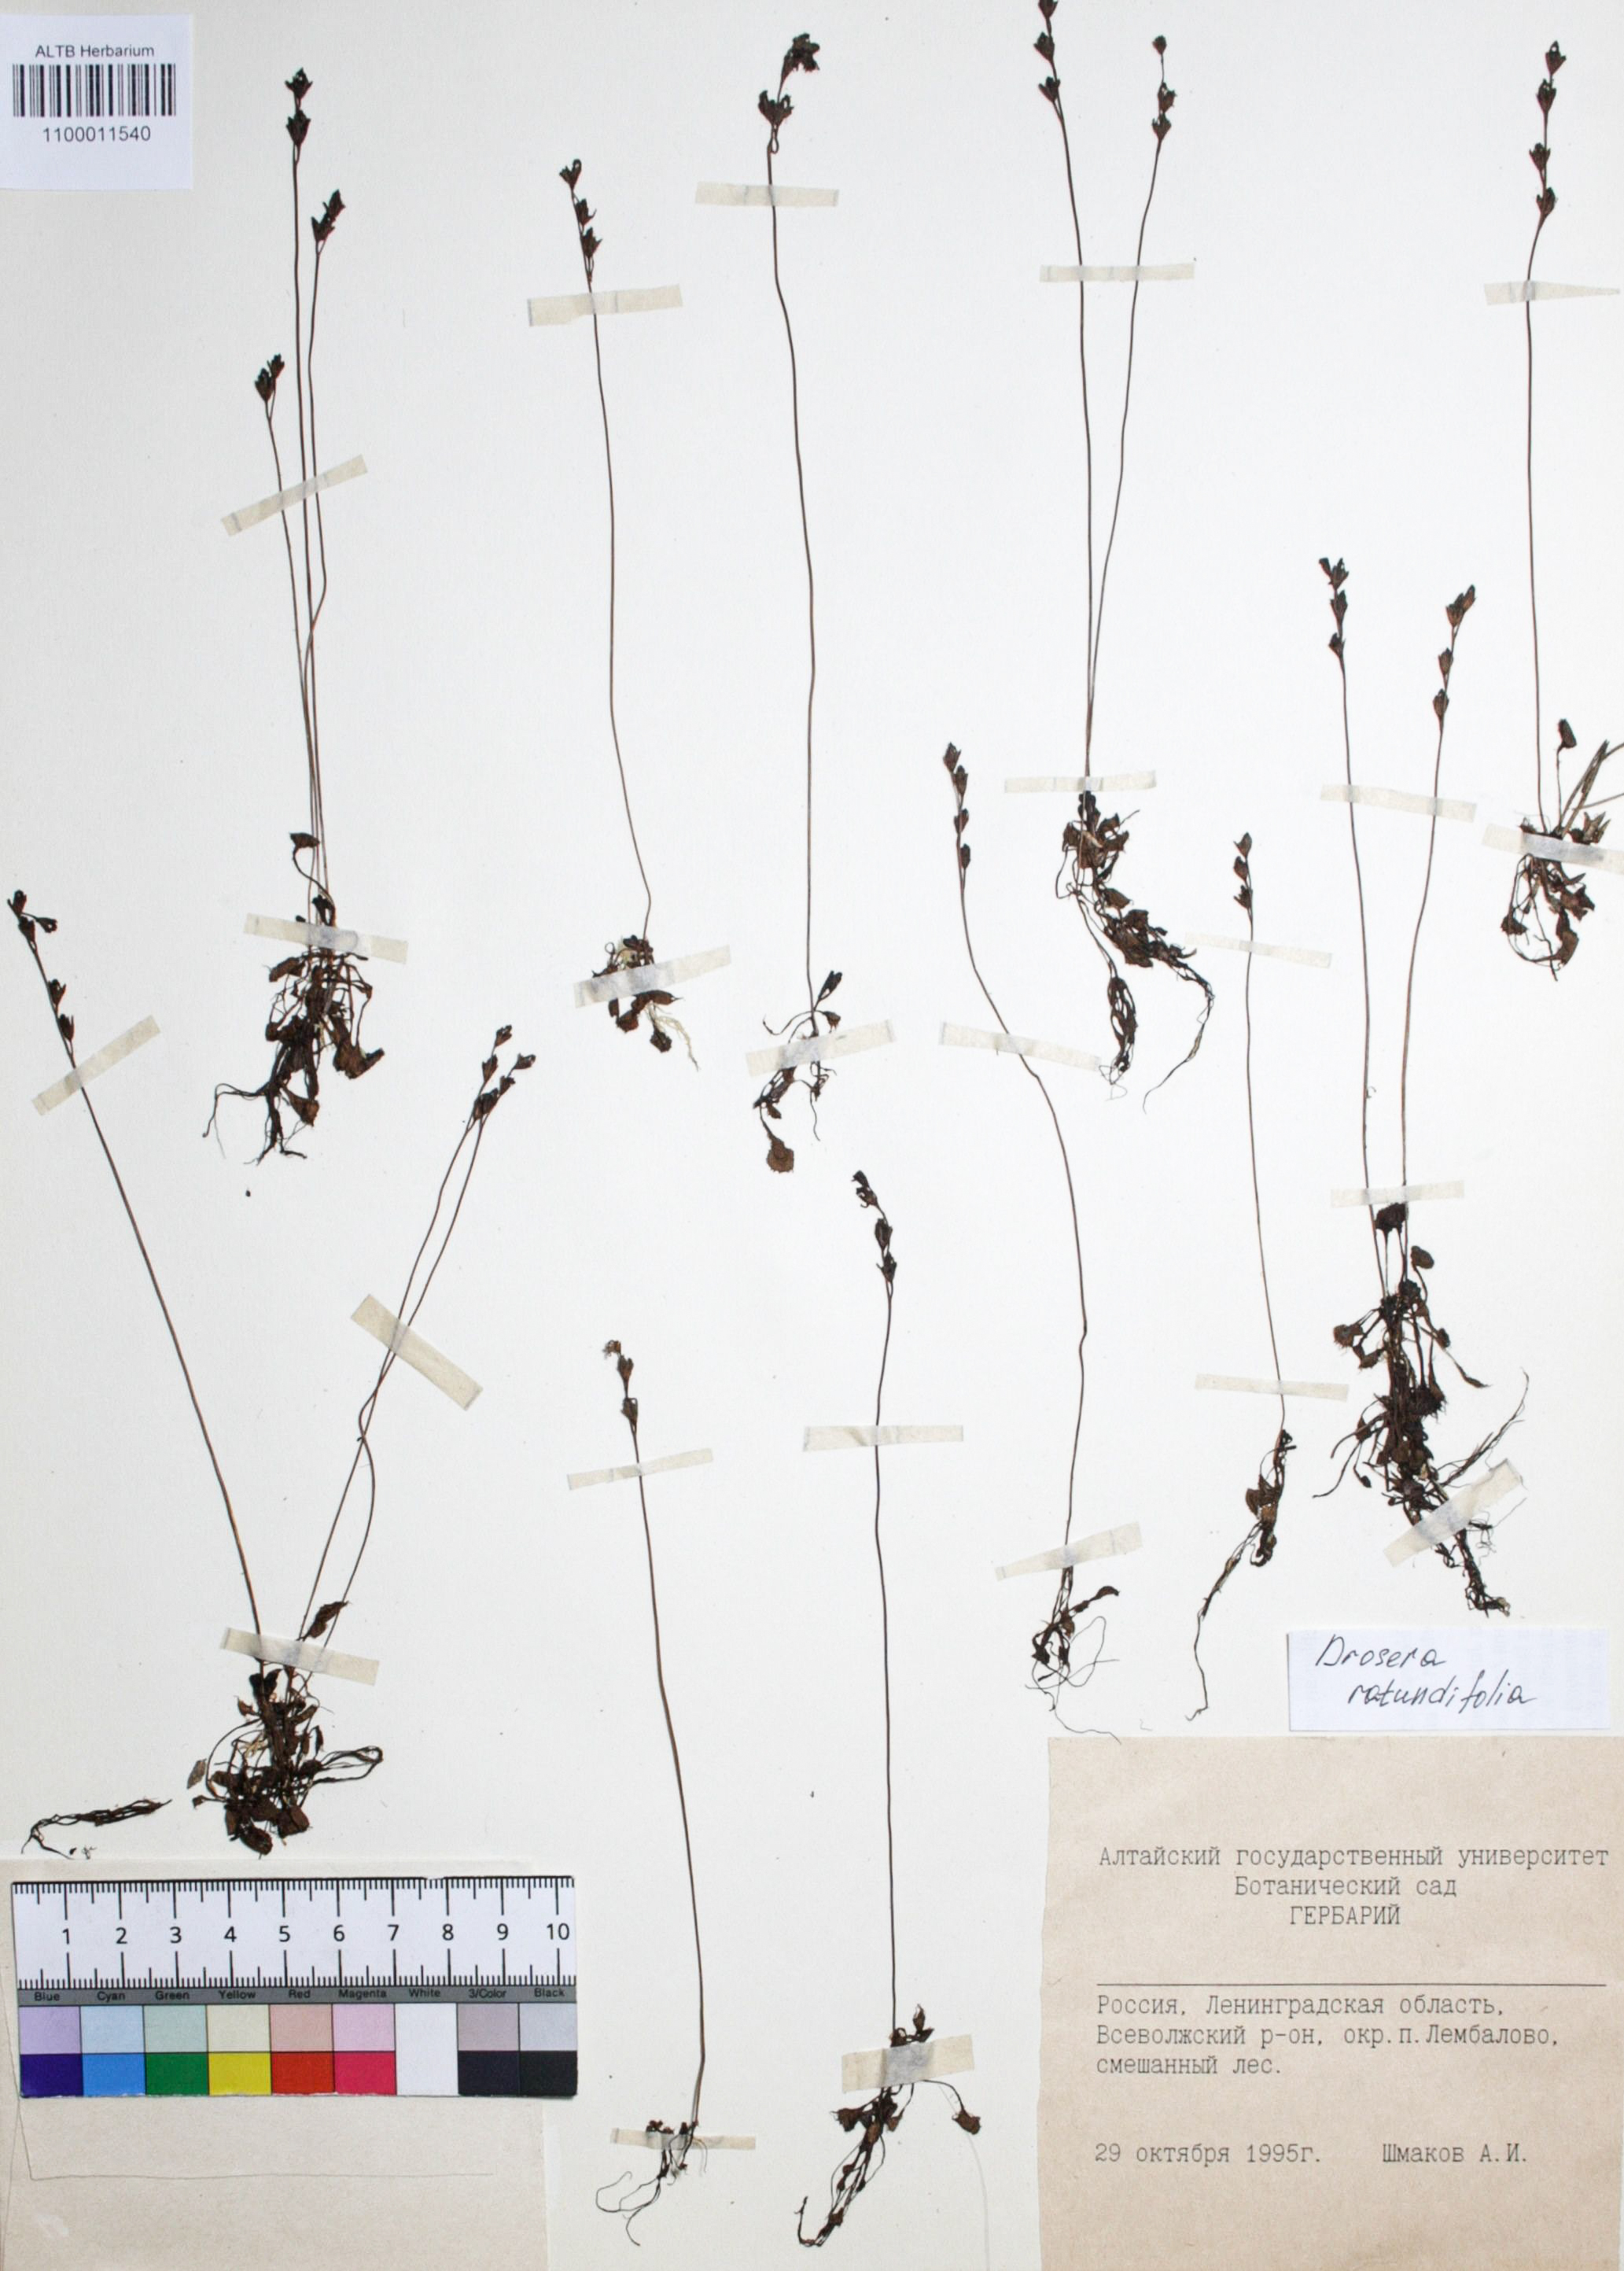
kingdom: Plantae
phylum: Tracheophyta
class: Magnoliopsida
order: Caryophyllales
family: Droseraceae
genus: Drosera
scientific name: Drosera rotundifolia
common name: Round-leaved sundew
